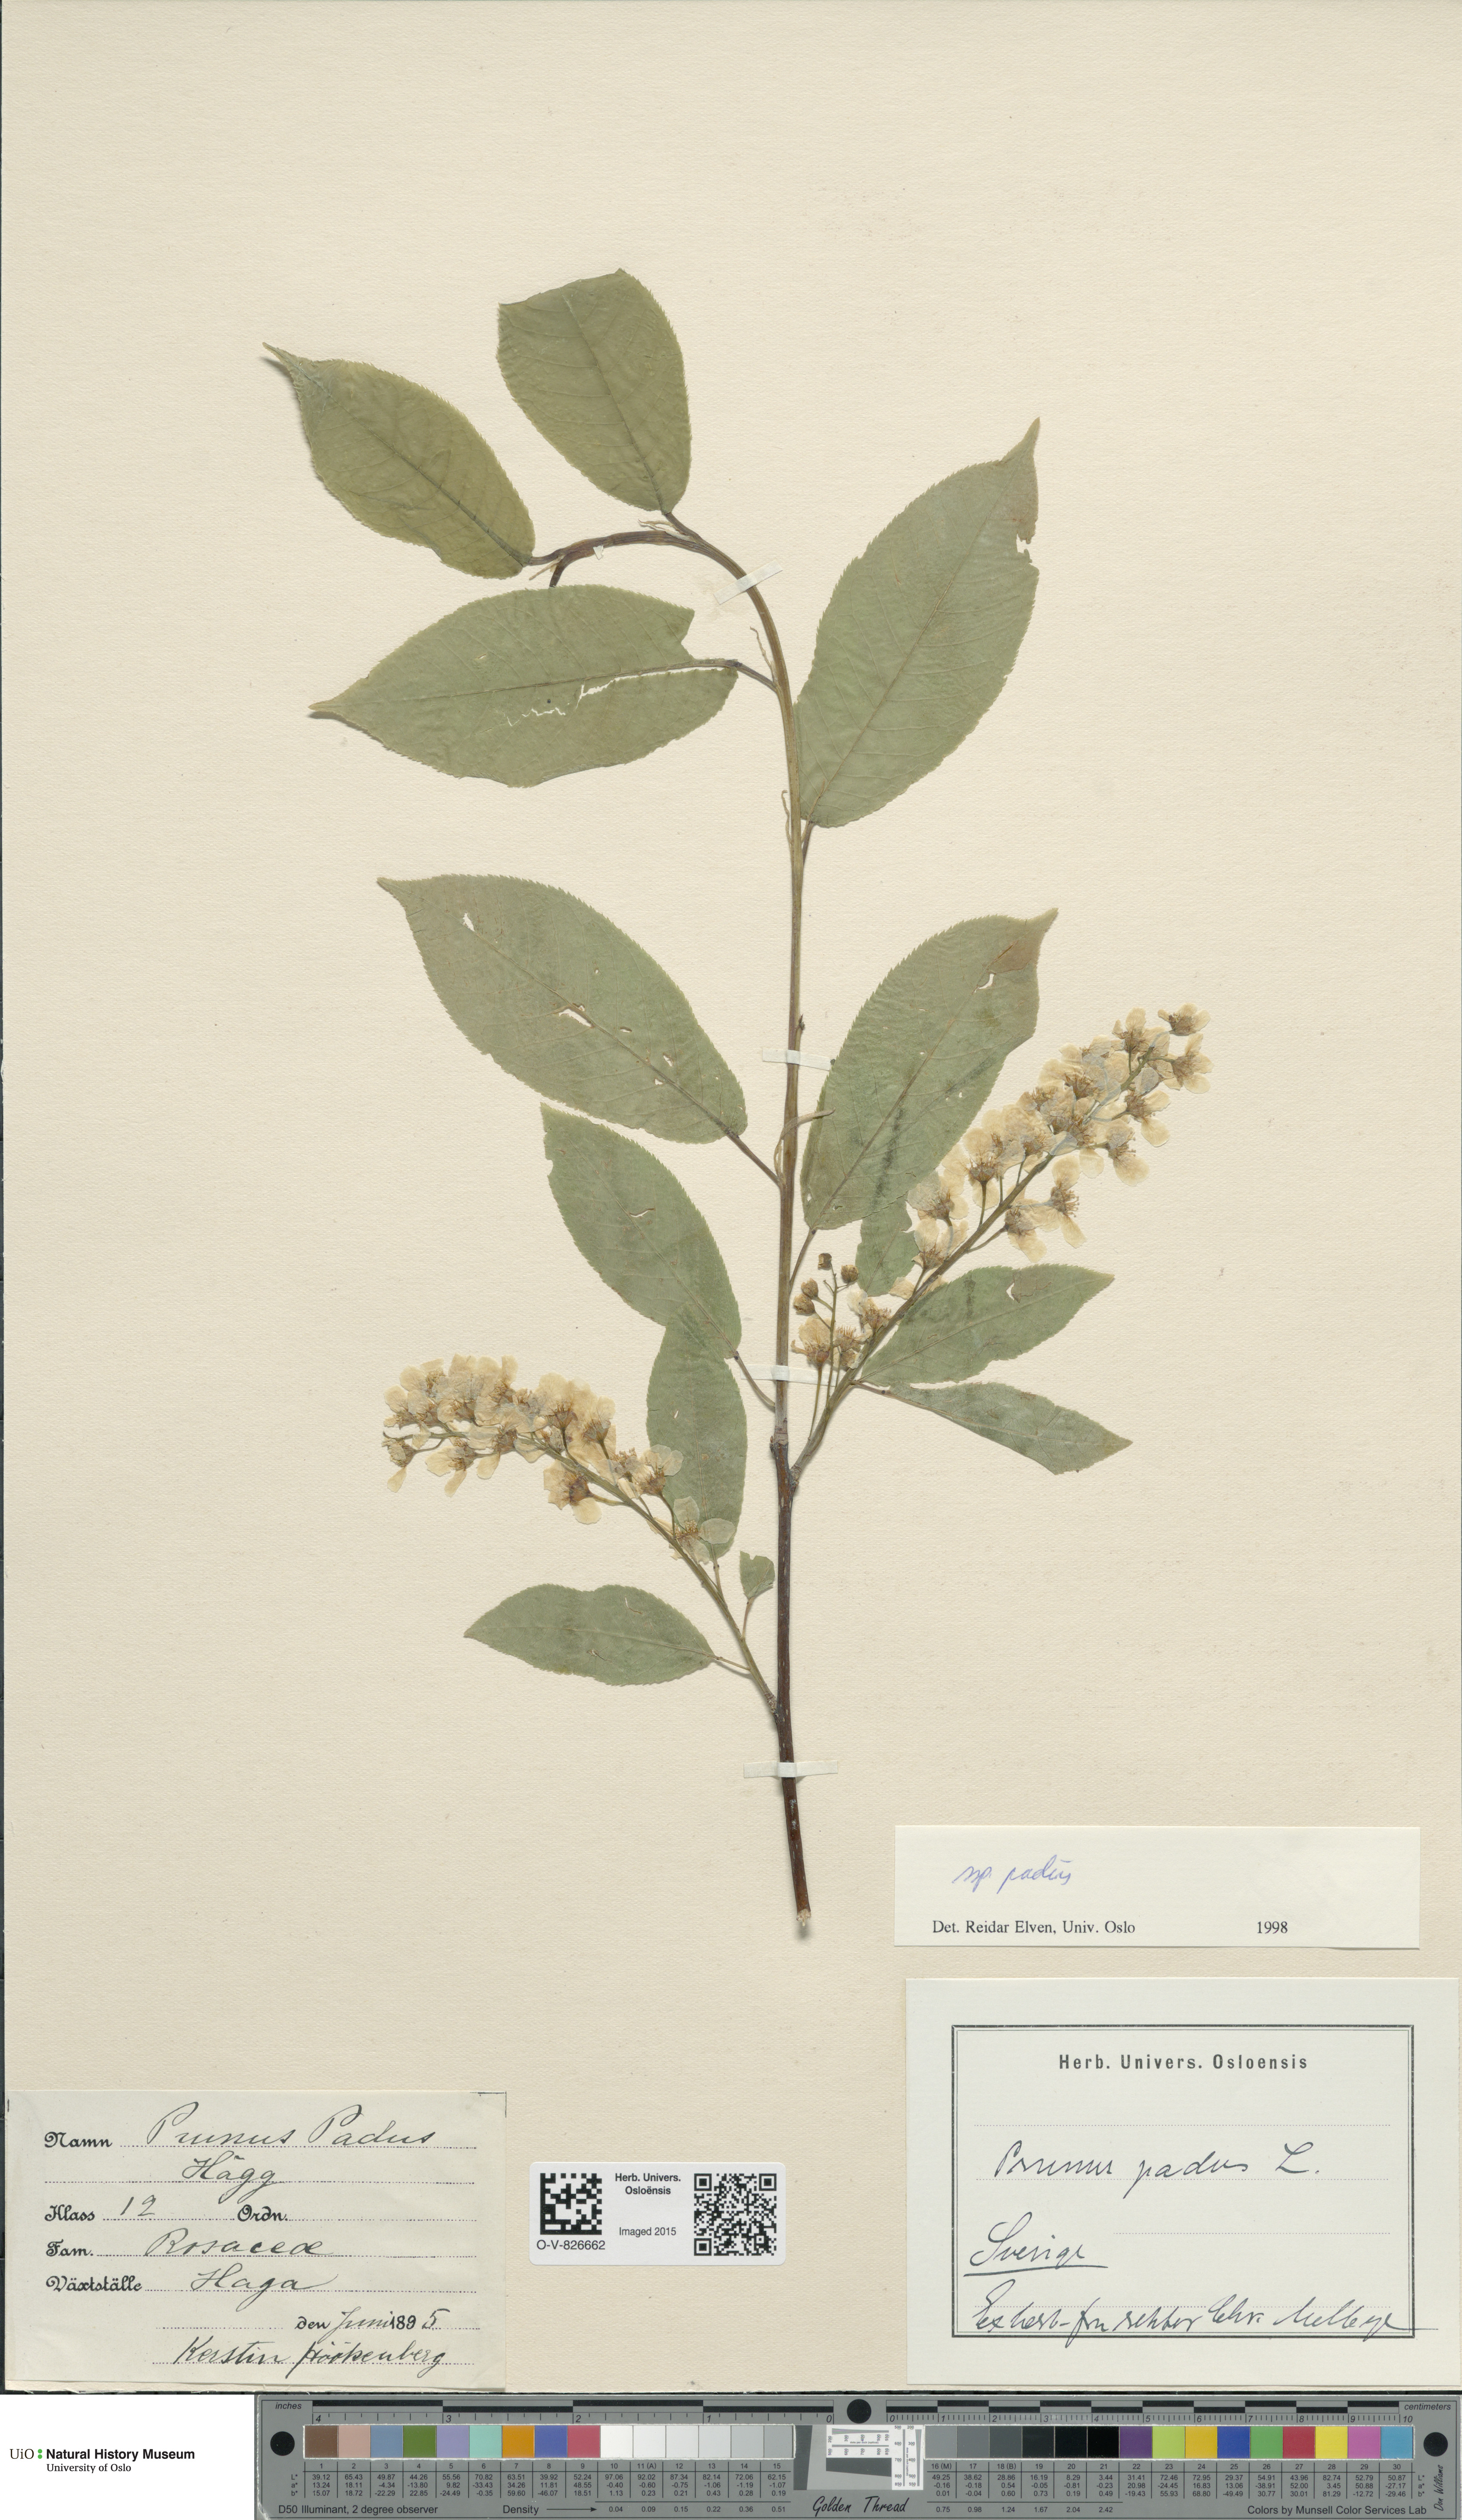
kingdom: Plantae
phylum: Tracheophyta
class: Magnoliopsida
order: Rosales
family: Rosaceae
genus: Prunus
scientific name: Prunus padus
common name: Bird cherry
